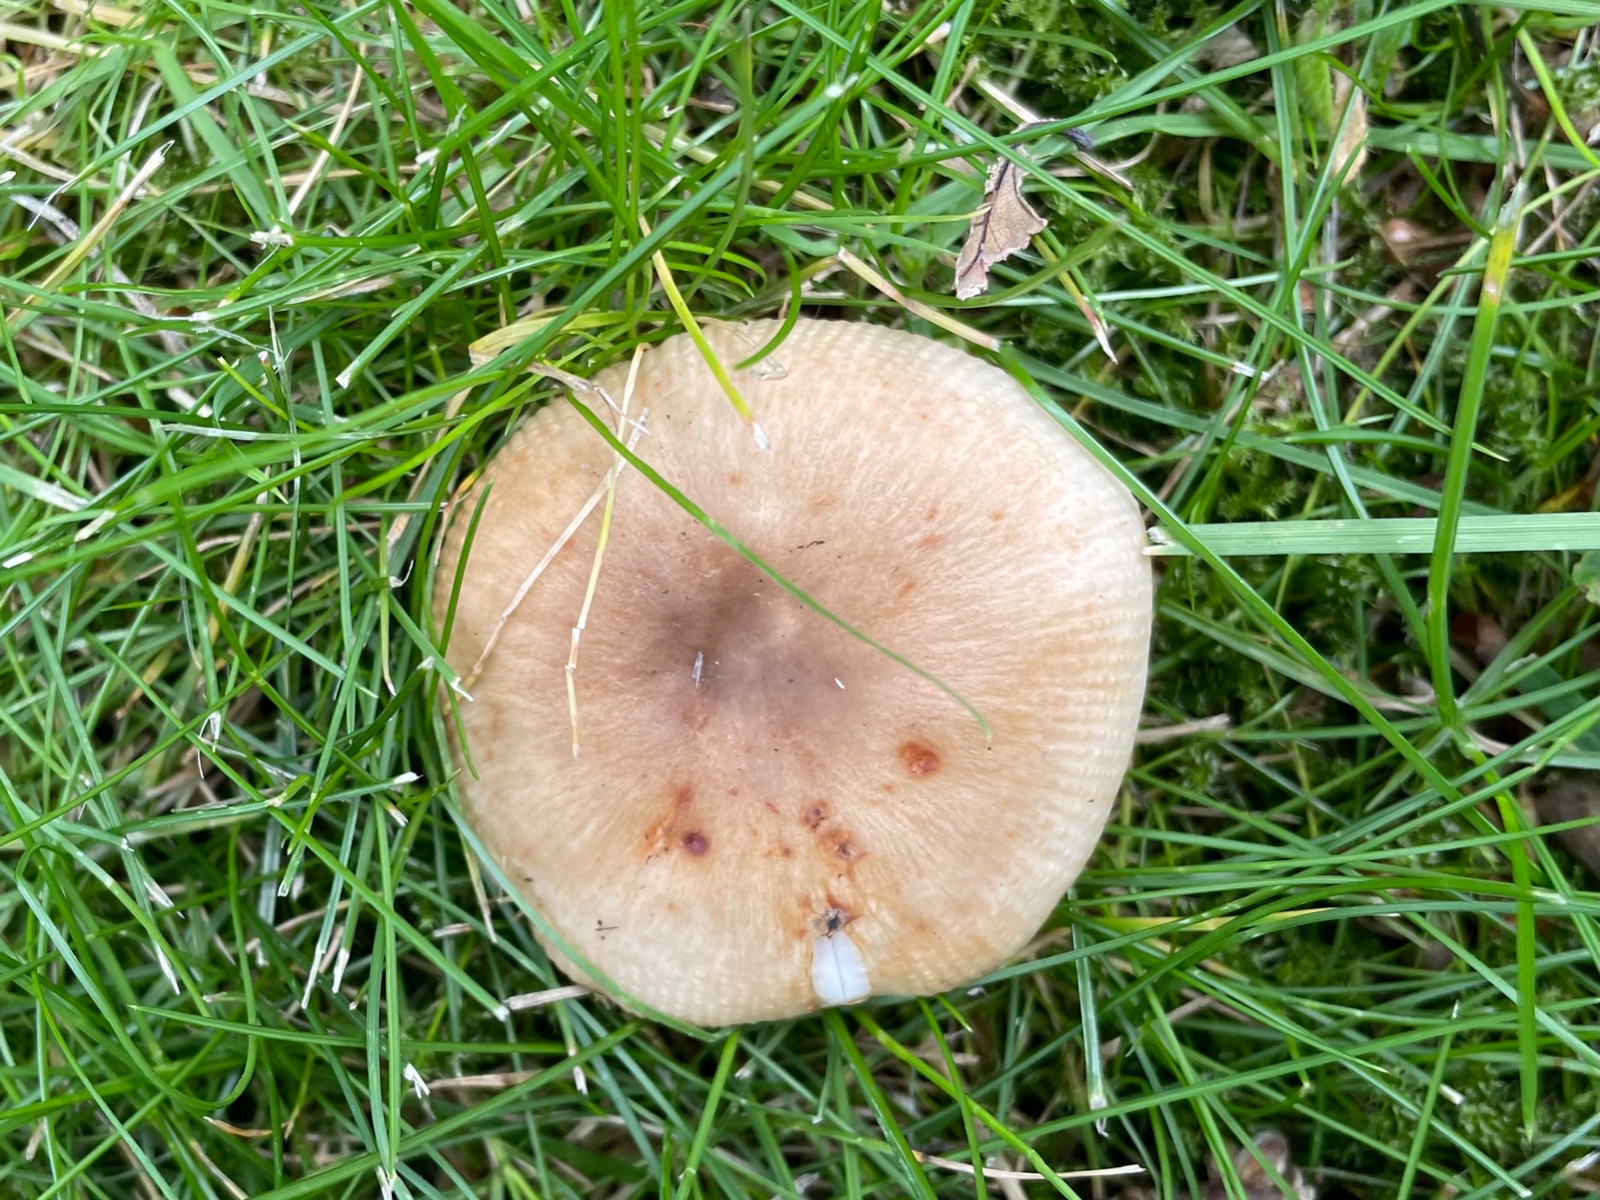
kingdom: Fungi
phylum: Basidiomycota
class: Agaricomycetes
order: Russulales
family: Russulaceae
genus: Russula
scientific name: Russula recondita
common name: mild kam-skørhat
